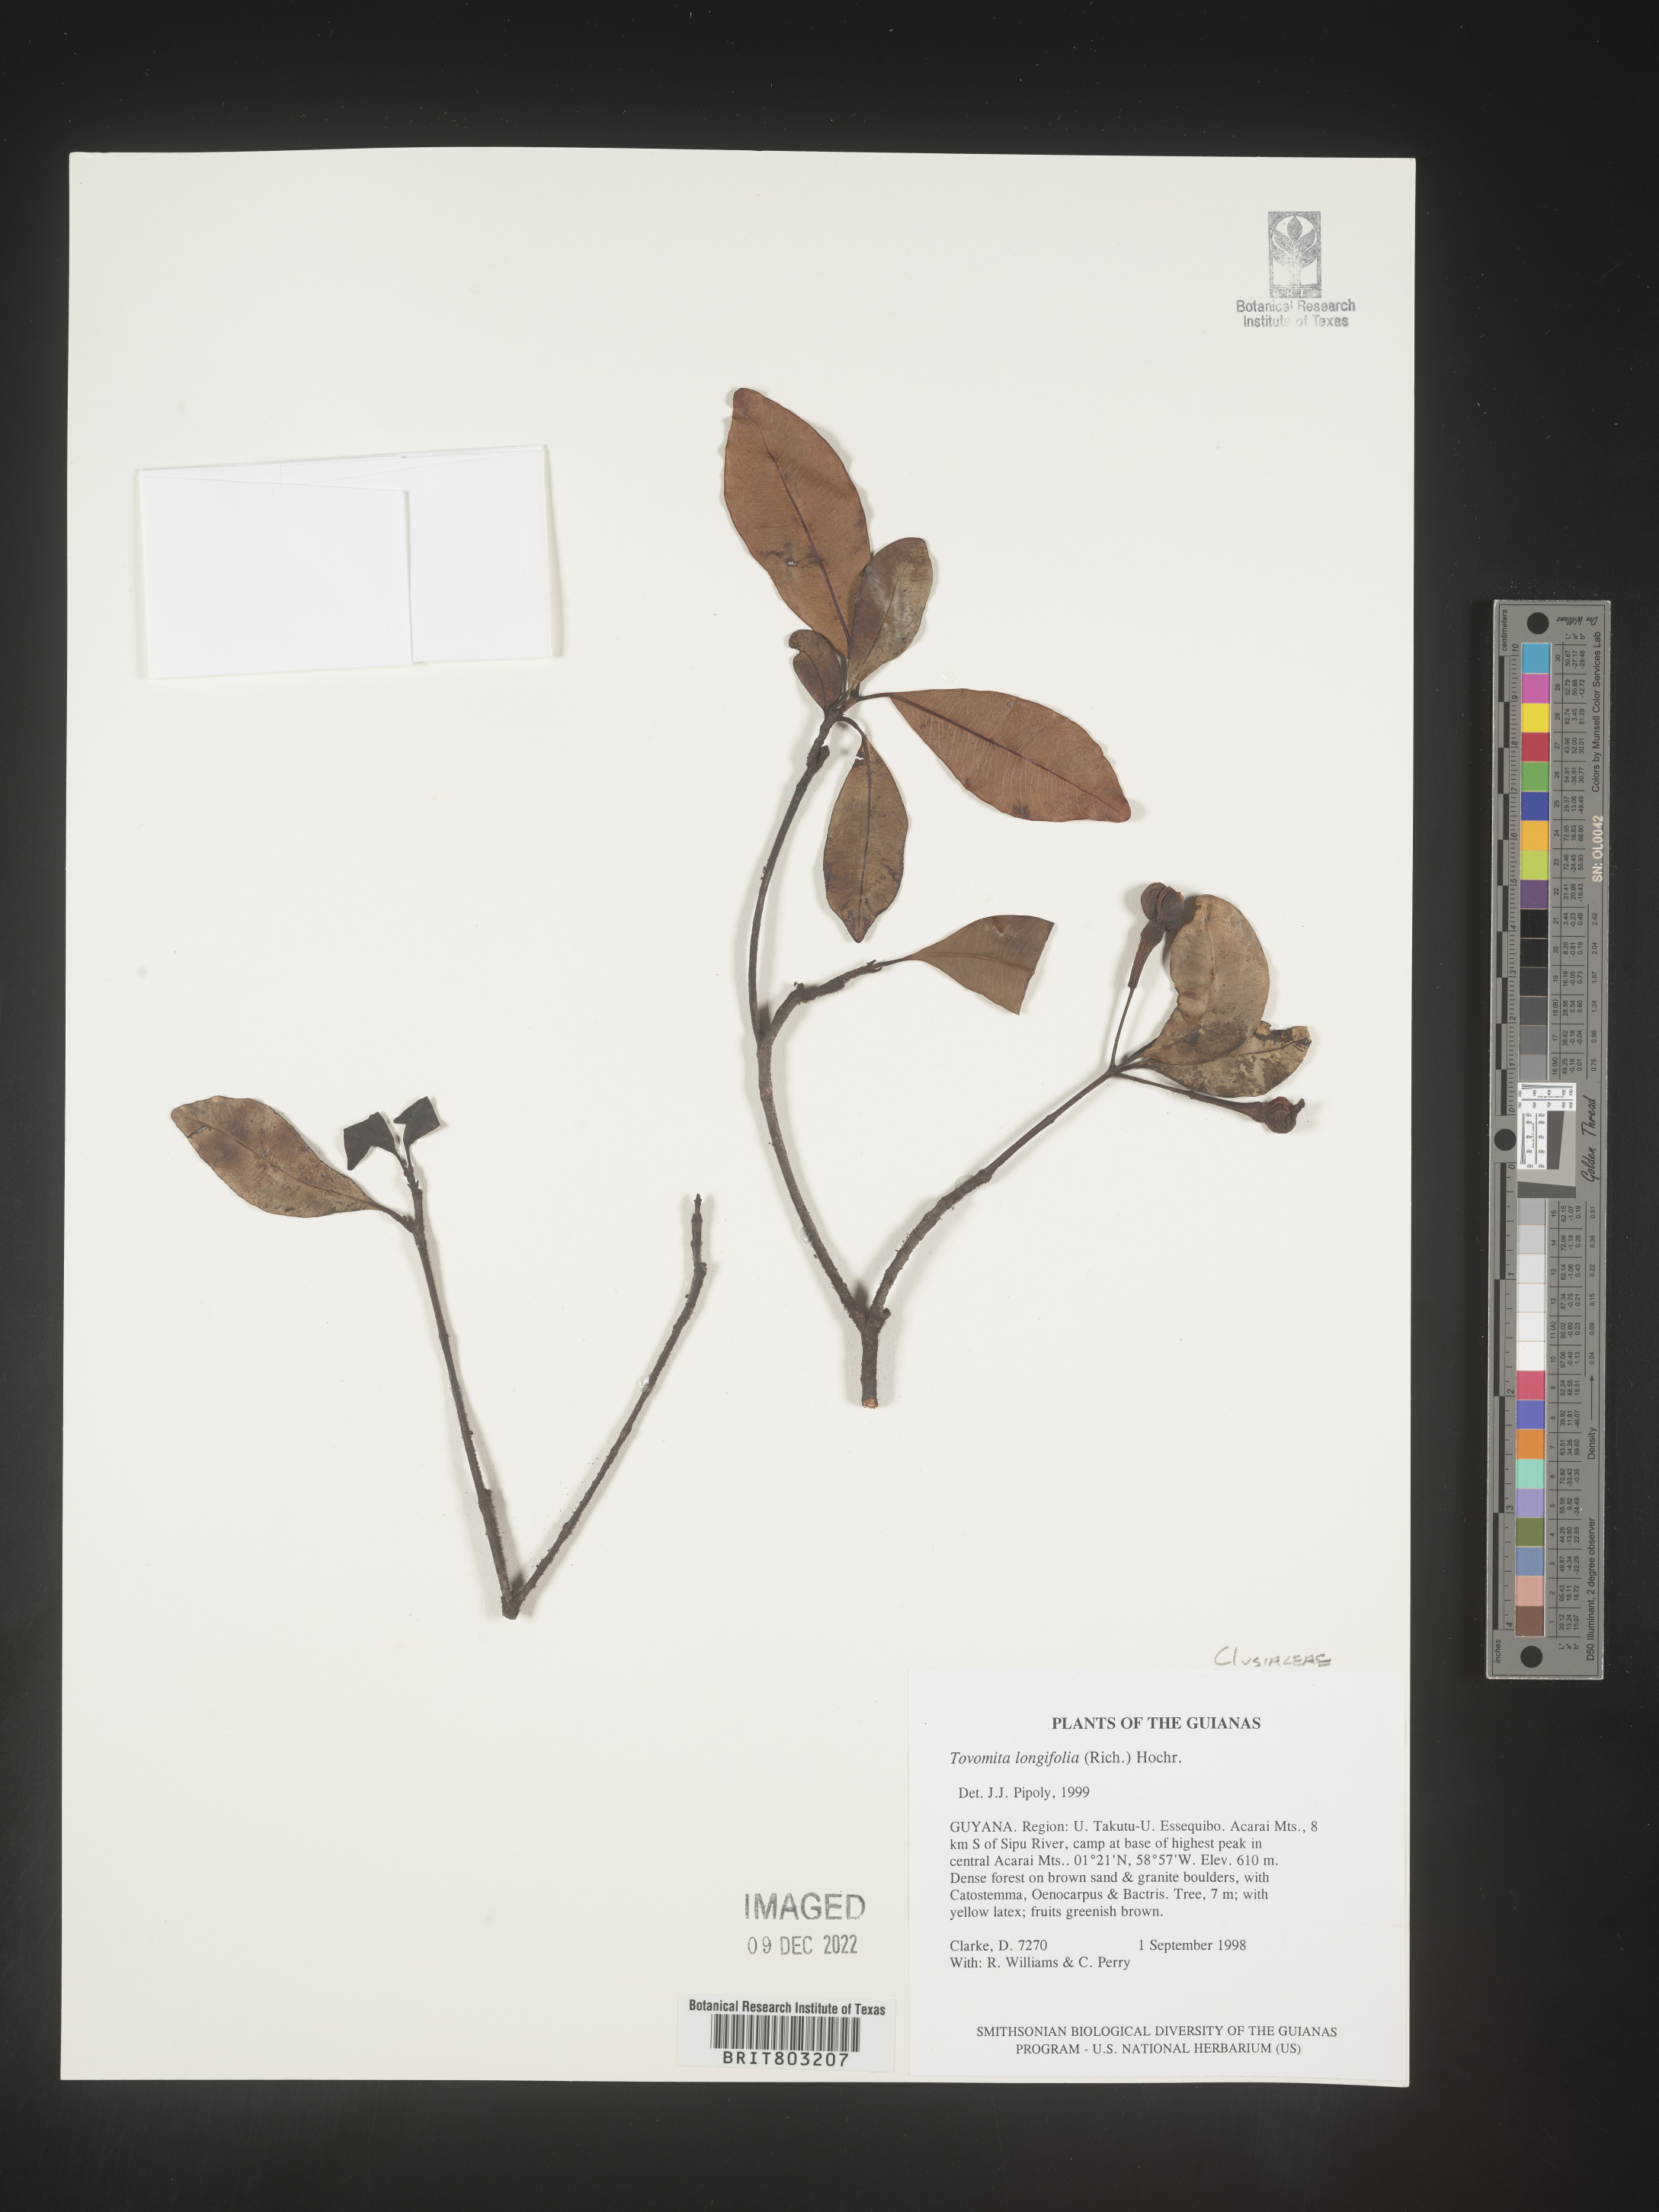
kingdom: Plantae
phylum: Tracheophyta
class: Magnoliopsida
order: Malpighiales
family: Clusiaceae
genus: Tovomita
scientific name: Tovomita
